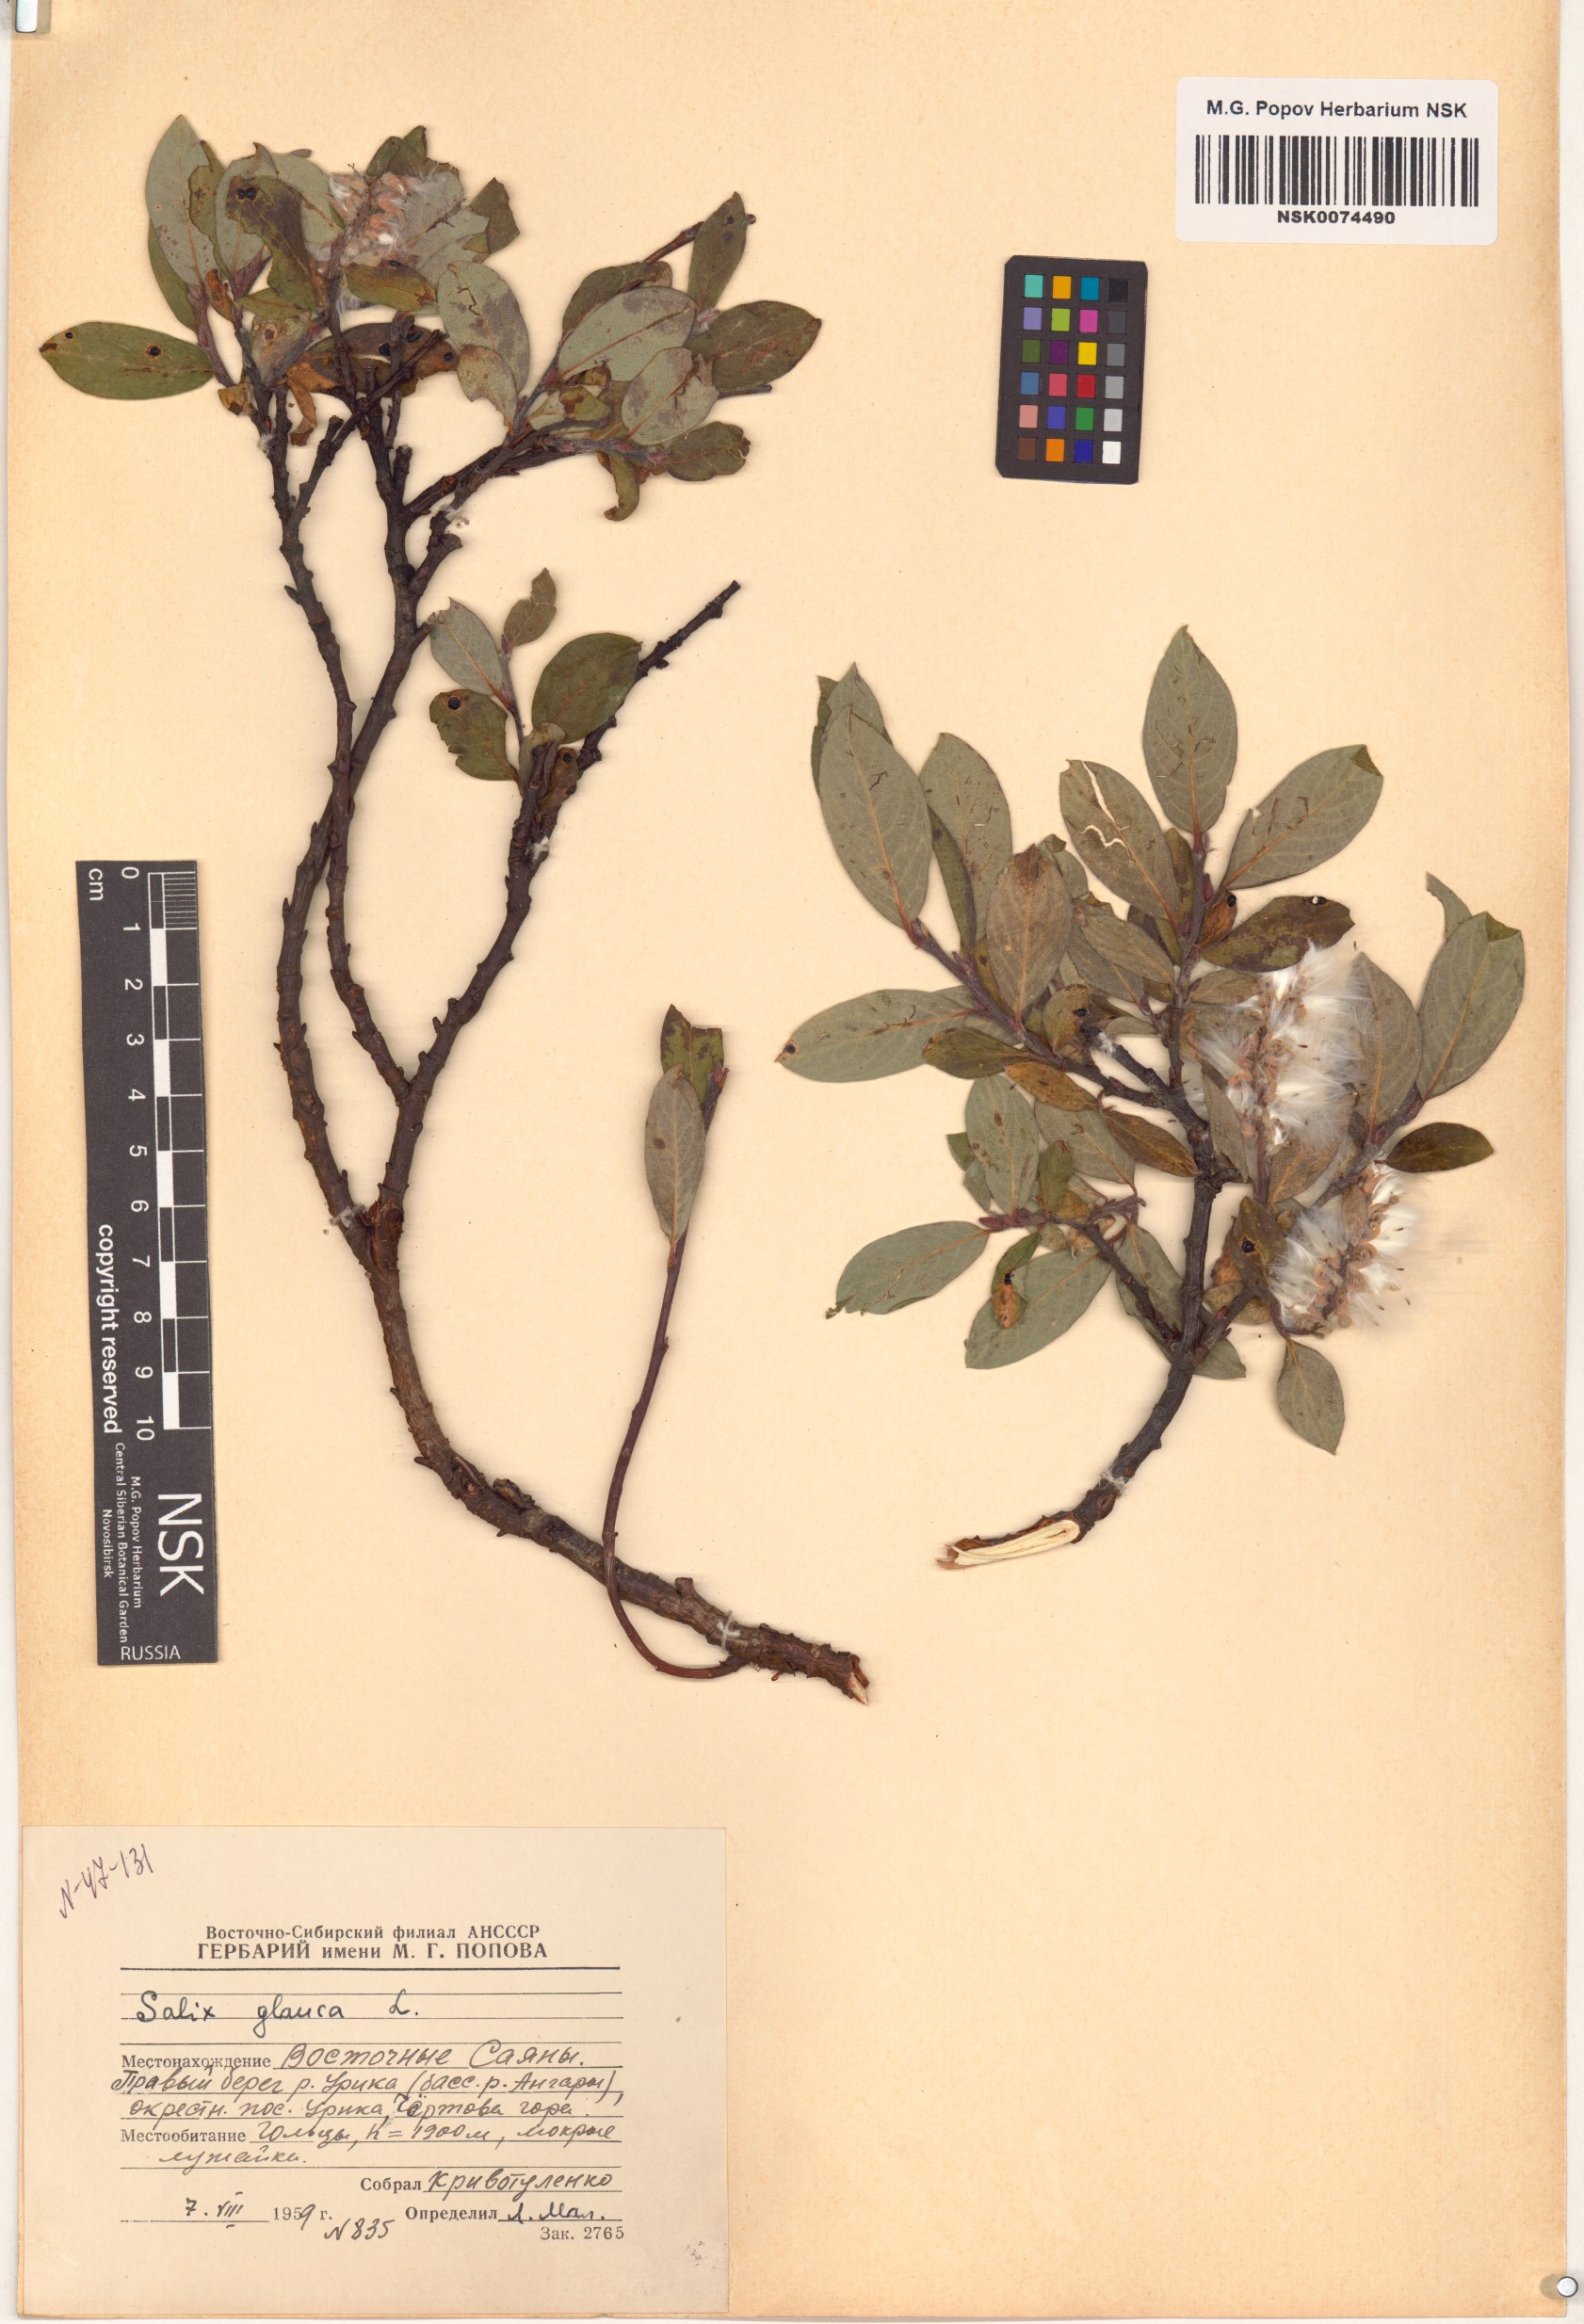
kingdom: Plantae
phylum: Tracheophyta
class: Magnoliopsida
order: Malpighiales
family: Salicaceae
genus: Salix
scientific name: Salix glauca
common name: Glaucous willow
